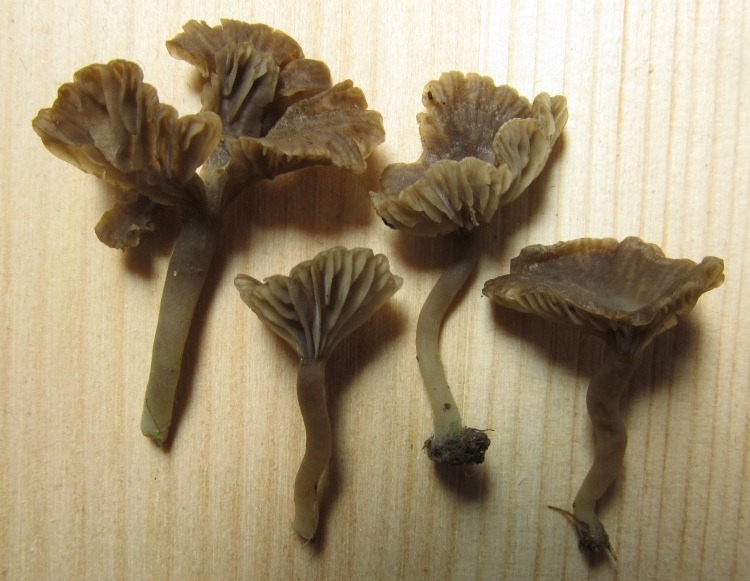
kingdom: Fungi
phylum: Basidiomycota
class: Agaricomycetes
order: Agaricales
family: Hygrophoraceae
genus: Arrhenia
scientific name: Arrhenia griseopallida
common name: bleggrå fontænehat
